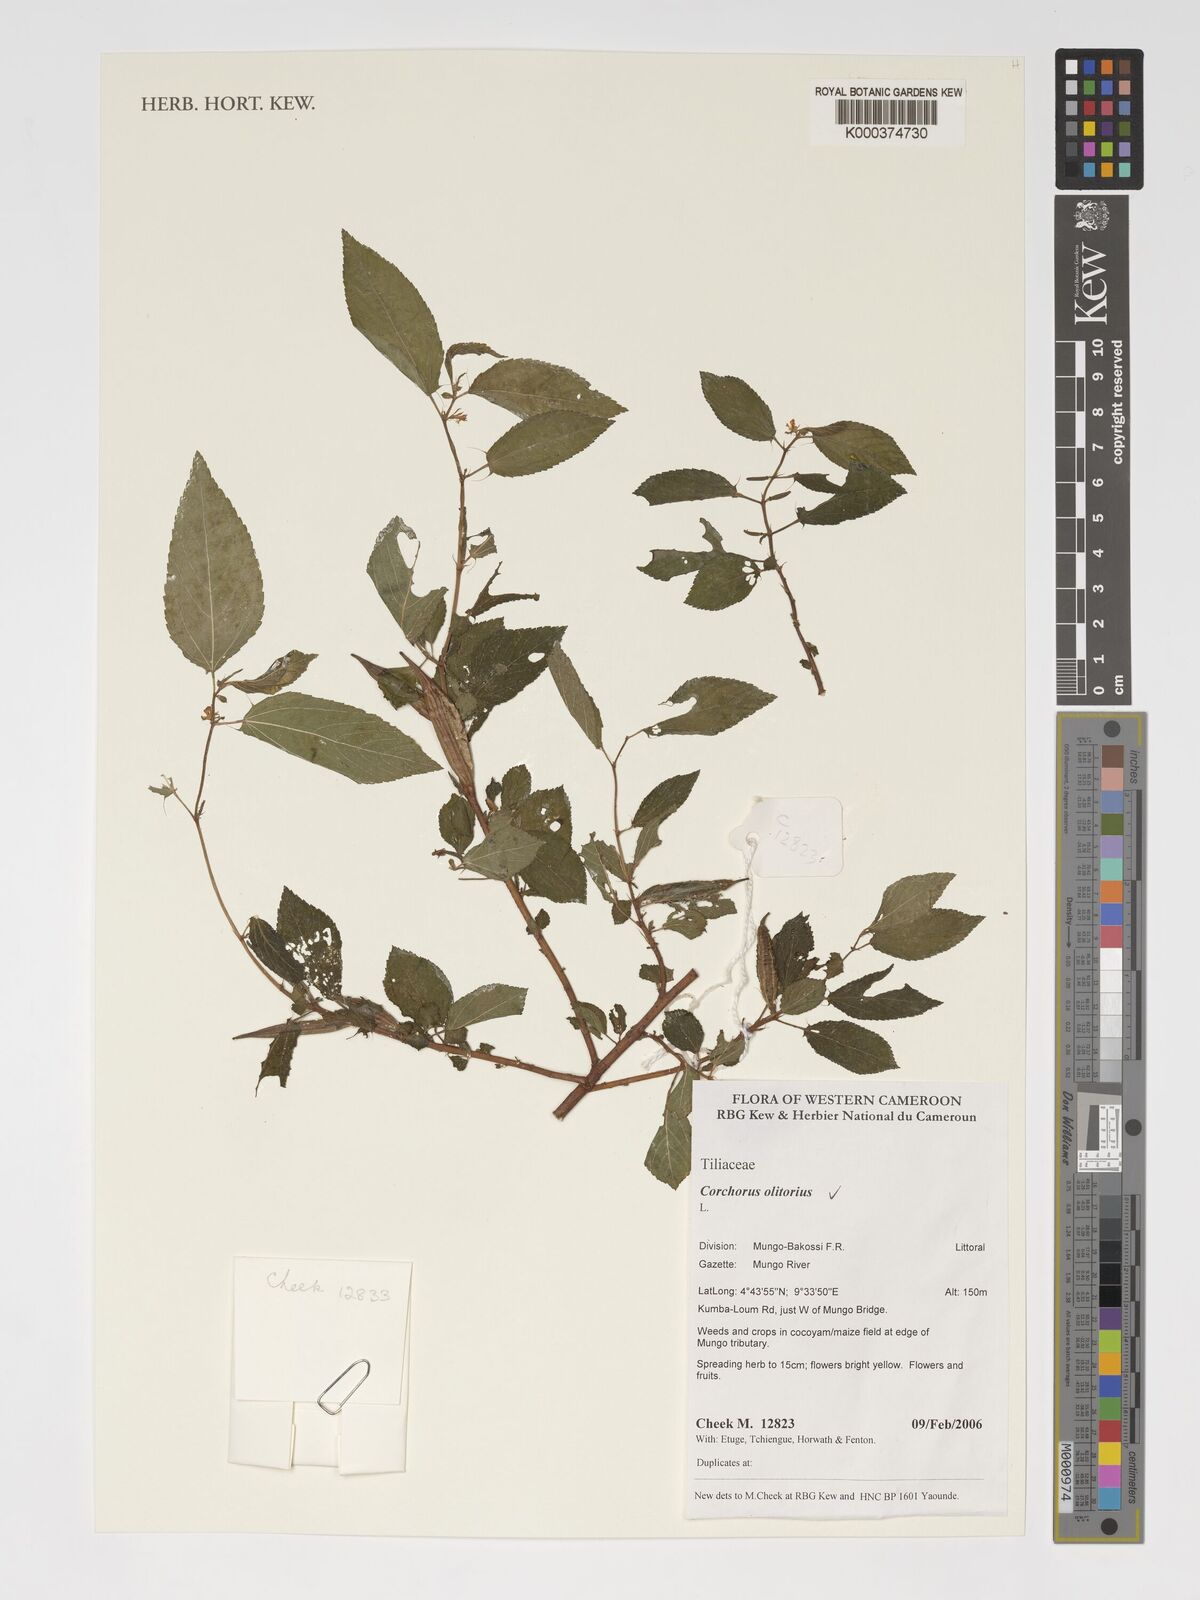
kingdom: Plantae
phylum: Tracheophyta
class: Magnoliopsida
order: Malvales
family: Malvaceae
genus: Corchorus
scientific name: Corchorus olitorius
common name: Tossa jute
